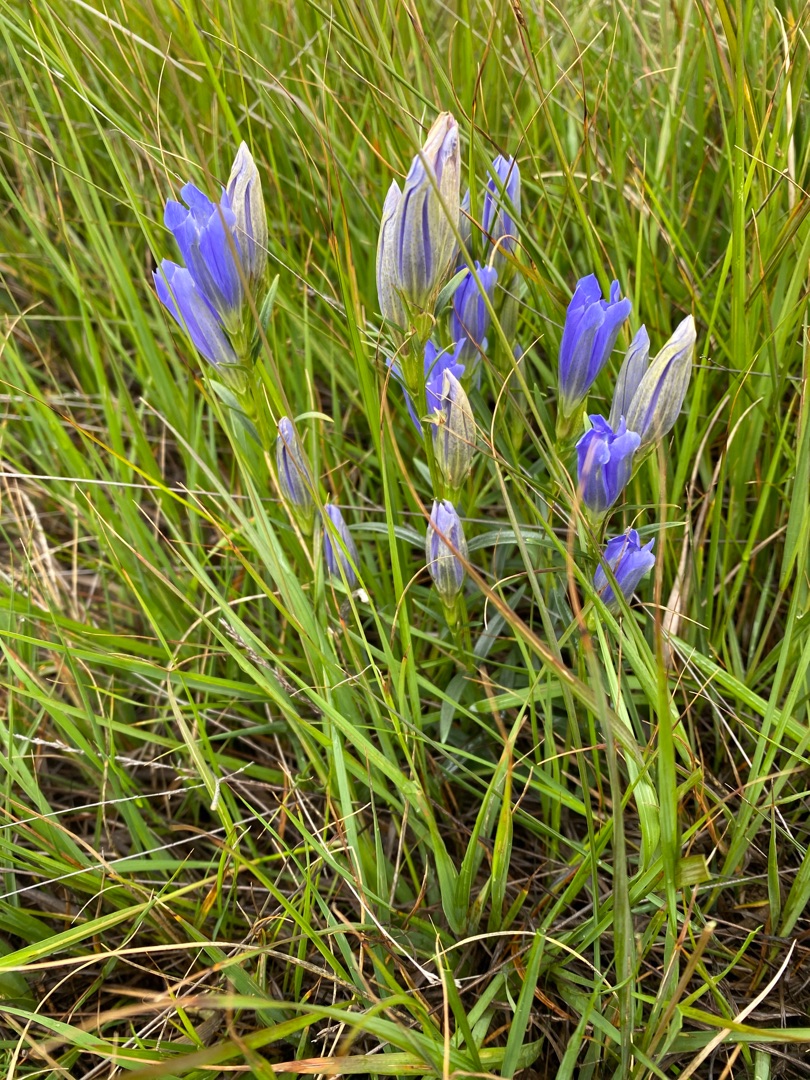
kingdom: Plantae
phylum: Tracheophyta
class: Magnoliopsida
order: Gentianales
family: Gentianaceae
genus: Gentiana
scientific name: Gentiana pneumonanthe
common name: Klokke-ensian
